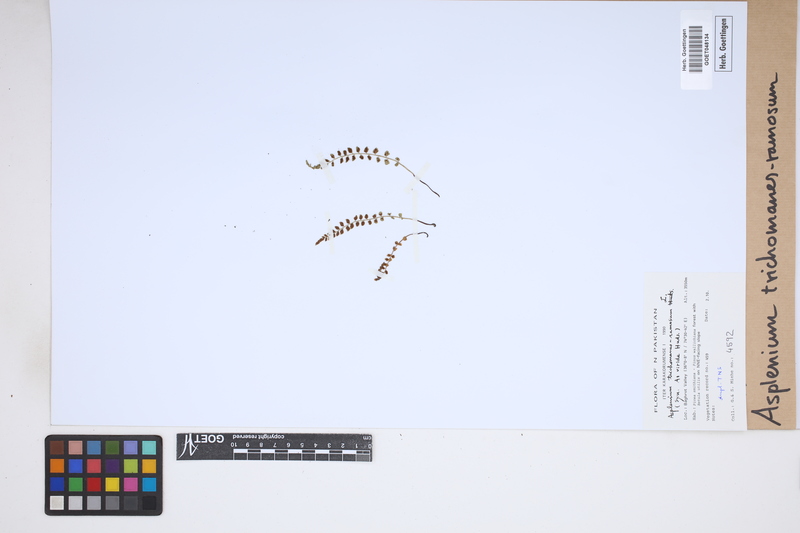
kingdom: Plantae
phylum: Tracheophyta
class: Polypodiopsida
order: Polypodiales
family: Aspleniaceae
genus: Asplenium
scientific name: Asplenium viride
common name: Green spleenwort
